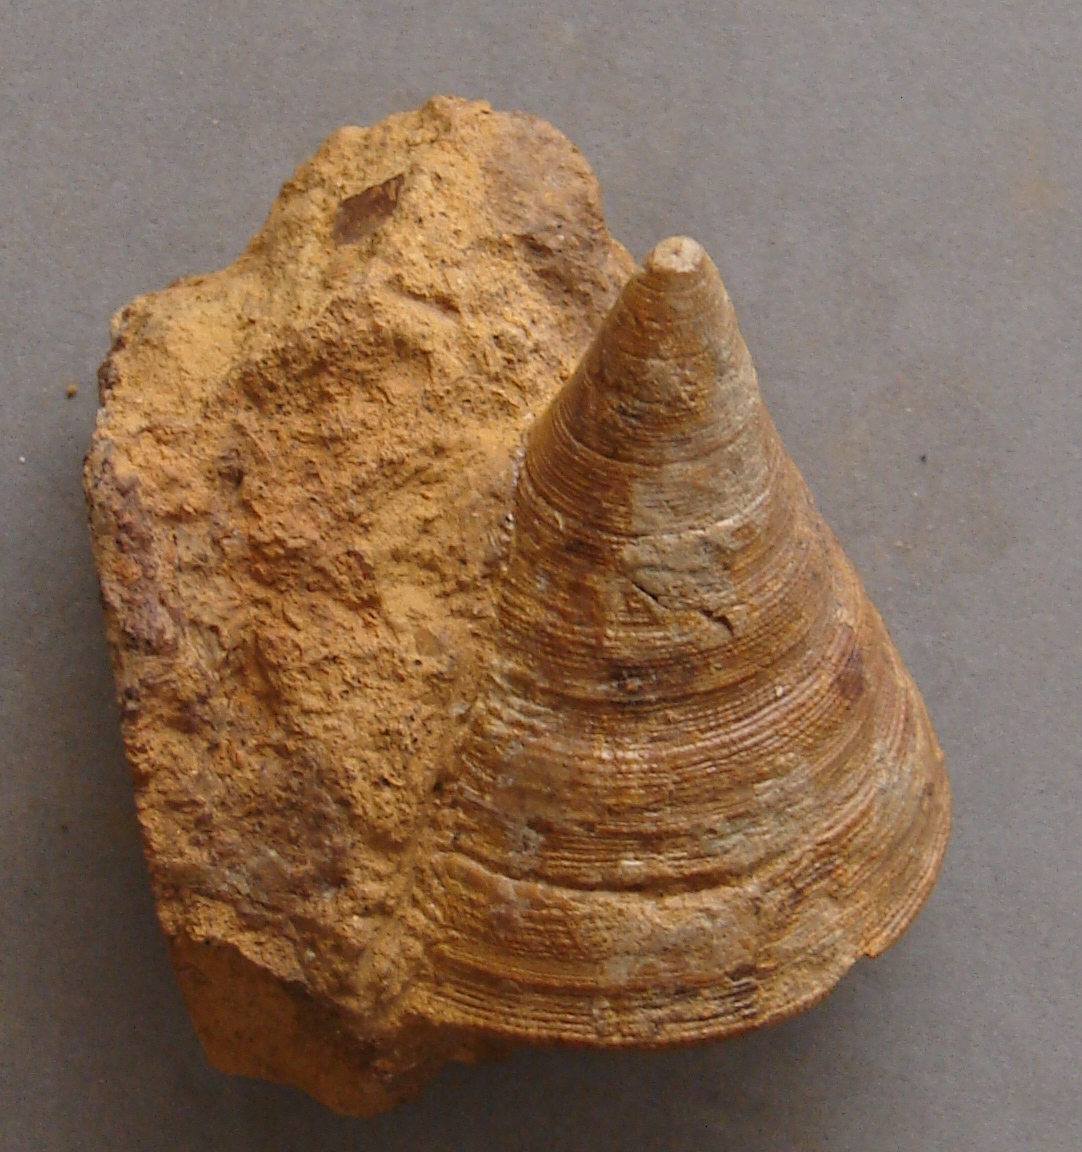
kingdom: Animalia
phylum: Mollusca
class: Gastropoda
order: Pleurotomariida
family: Pleurotomariidae
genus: Leptomaria
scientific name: Leptomaria Trochus punctatus
